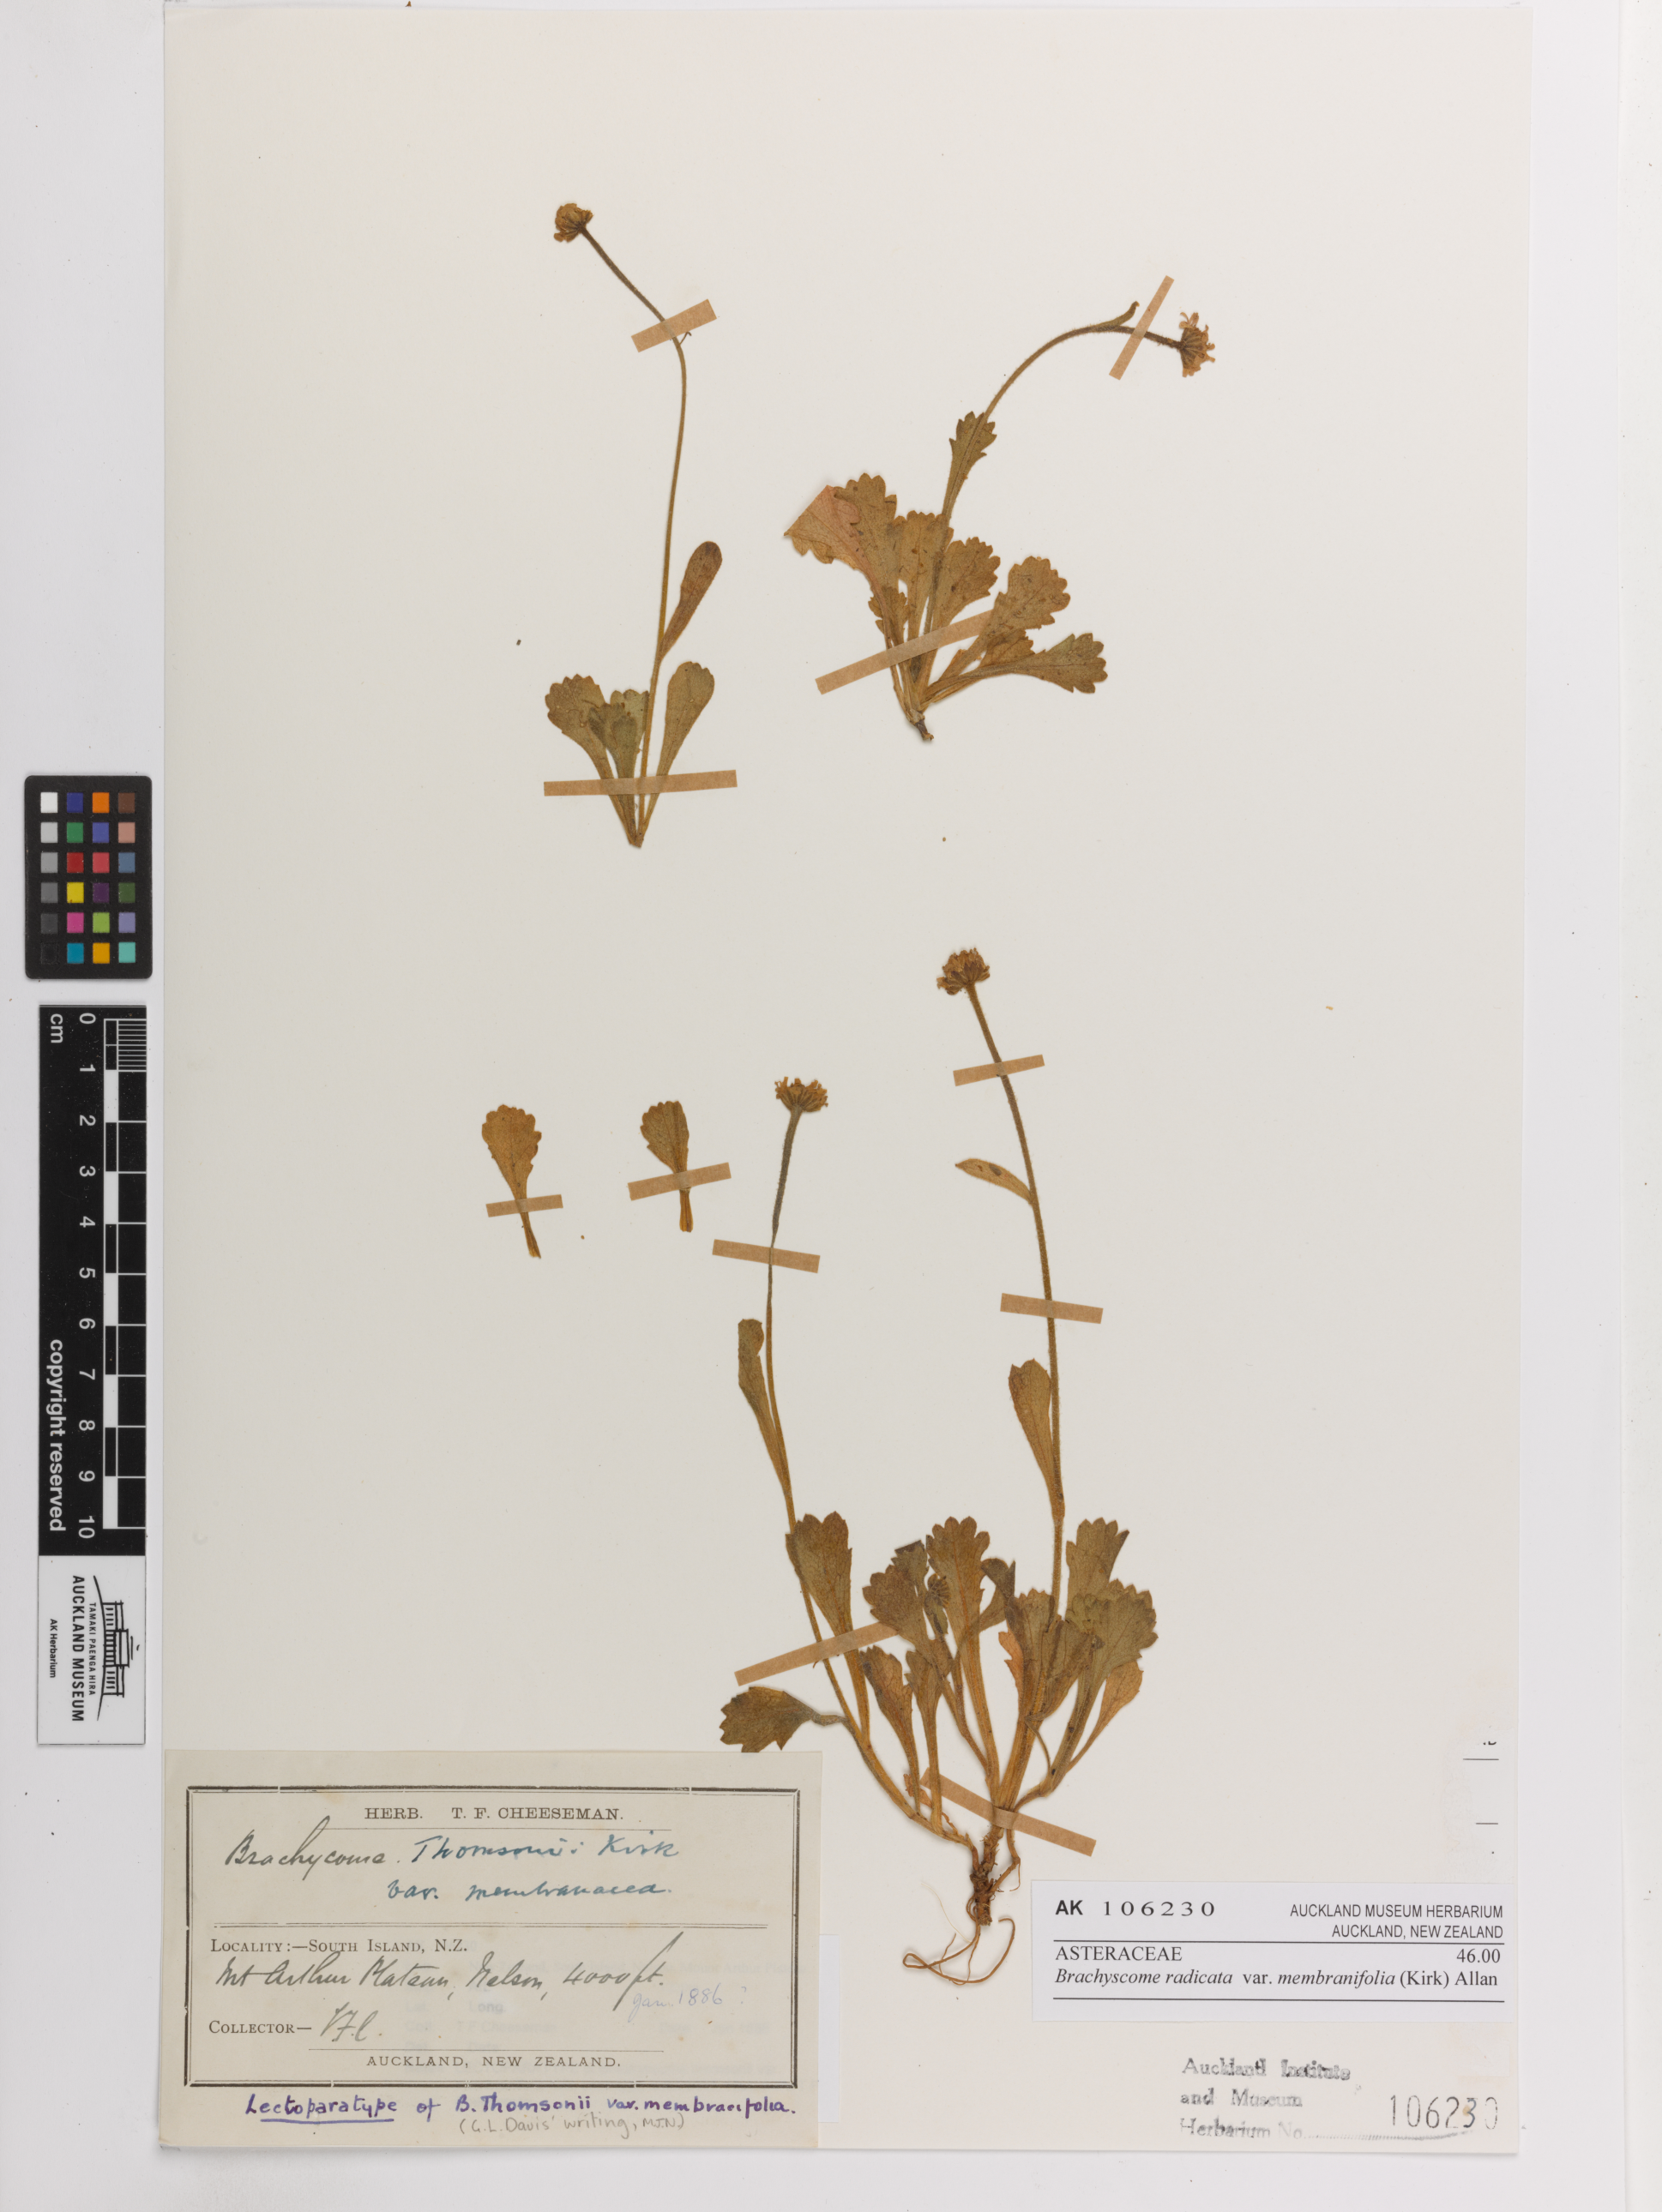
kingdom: Plantae
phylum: Tracheophyta
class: Magnoliopsida
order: Asterales
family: Asteraceae
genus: Brachyscome
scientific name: Brachyscome radicata
